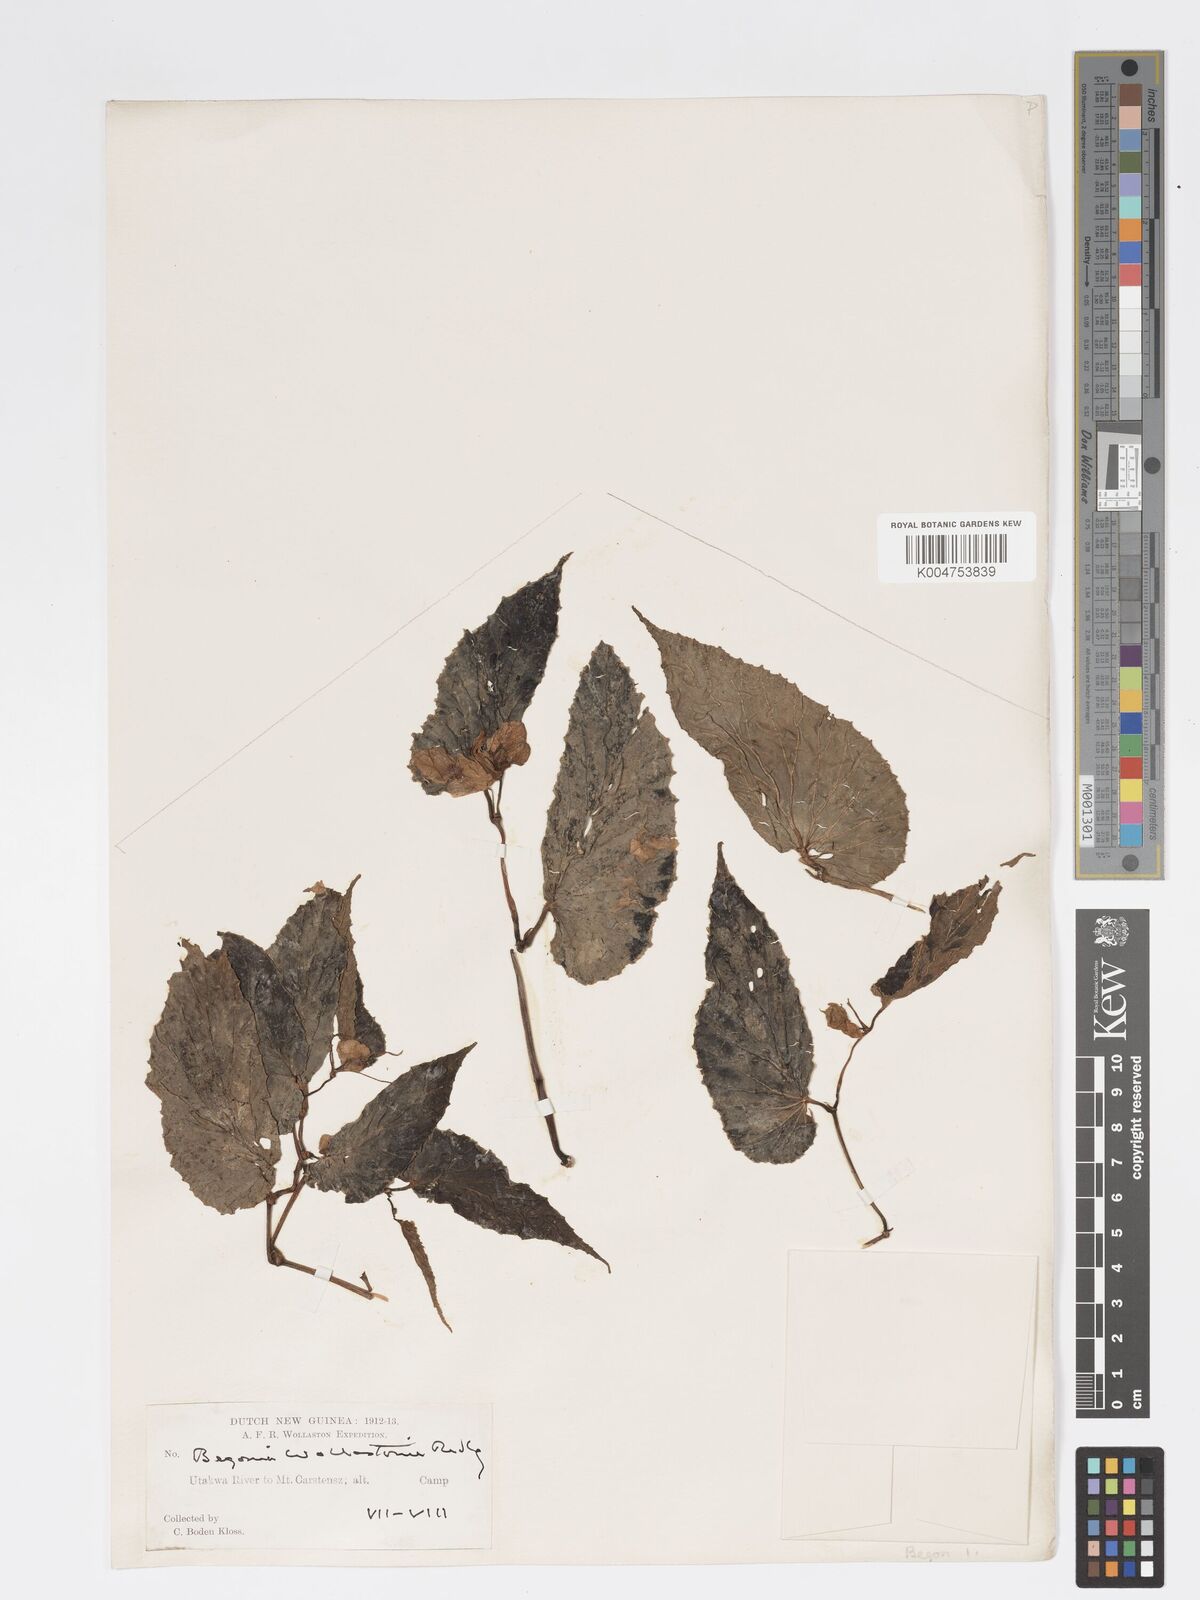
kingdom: Plantae
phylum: Tracheophyta
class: Magnoliopsida
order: Cucurbitales
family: Begoniaceae
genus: Begonia
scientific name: Begonia wollastonii
